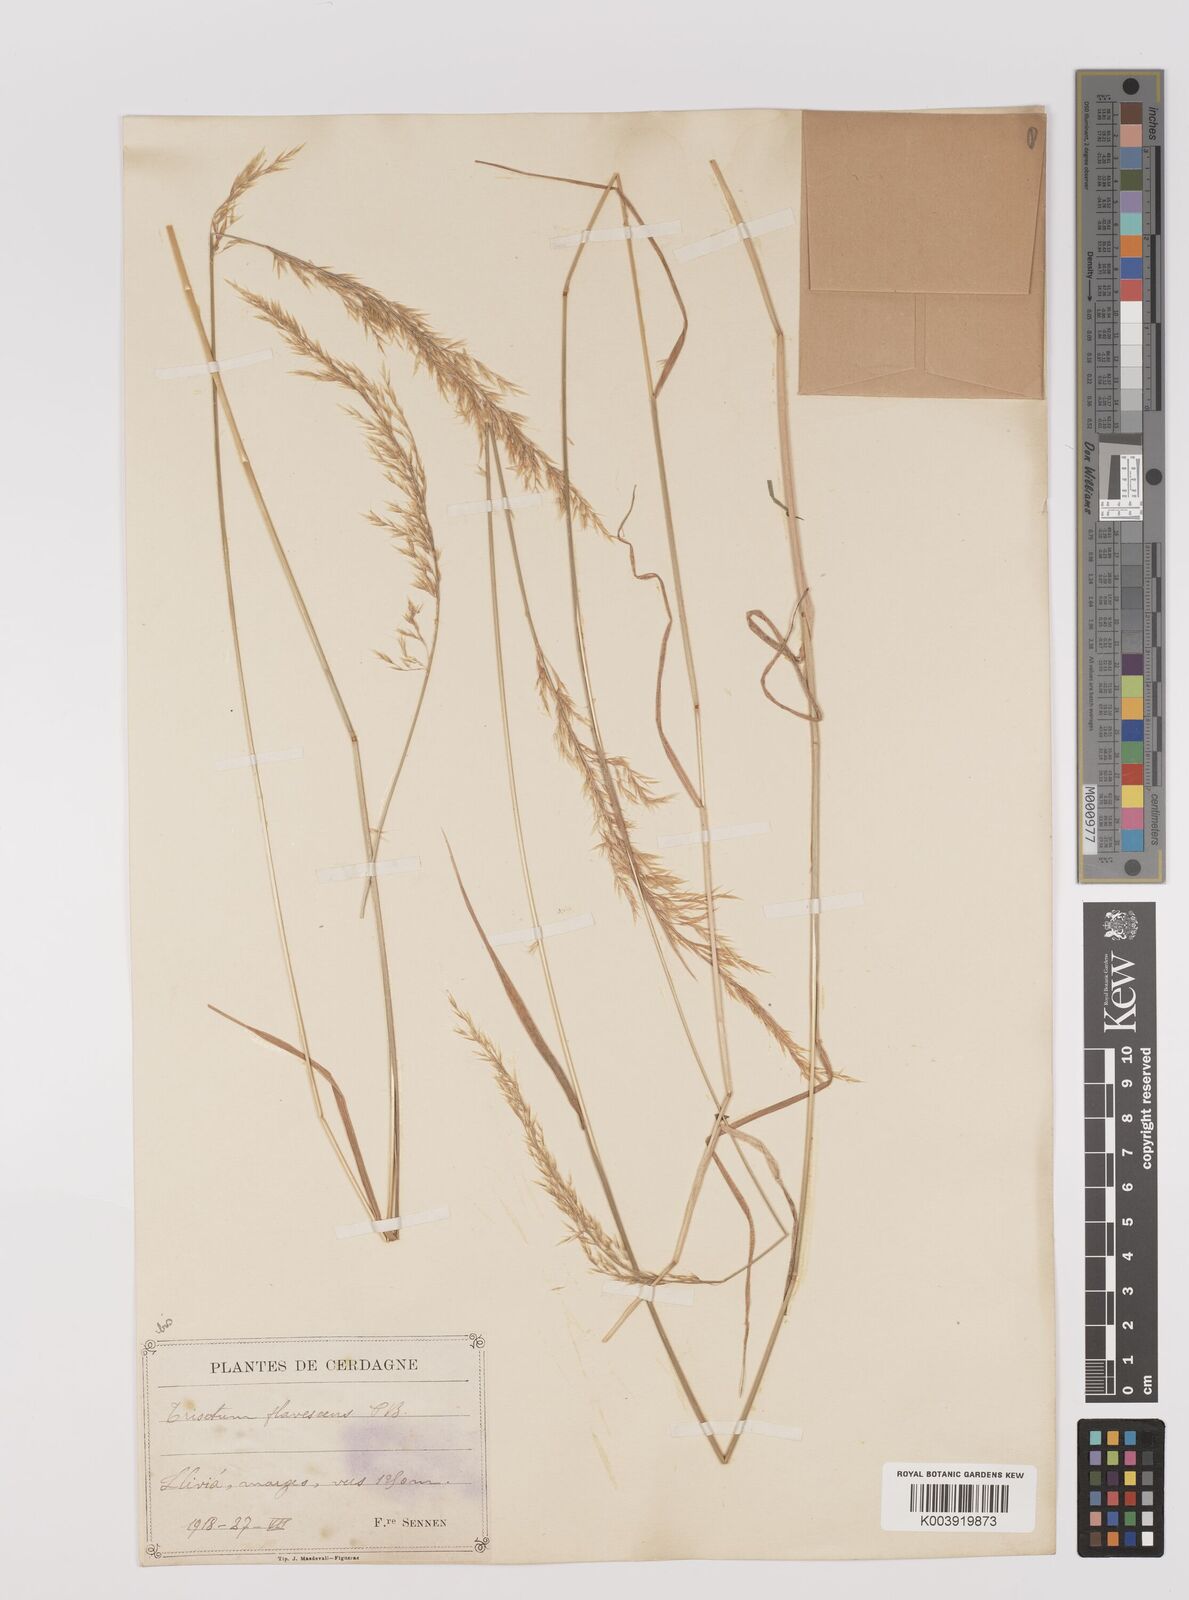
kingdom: Plantae
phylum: Tracheophyta
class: Liliopsida
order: Poales
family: Poaceae
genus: Trisetum
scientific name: Trisetum flavescens
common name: Yellow oat-grass
